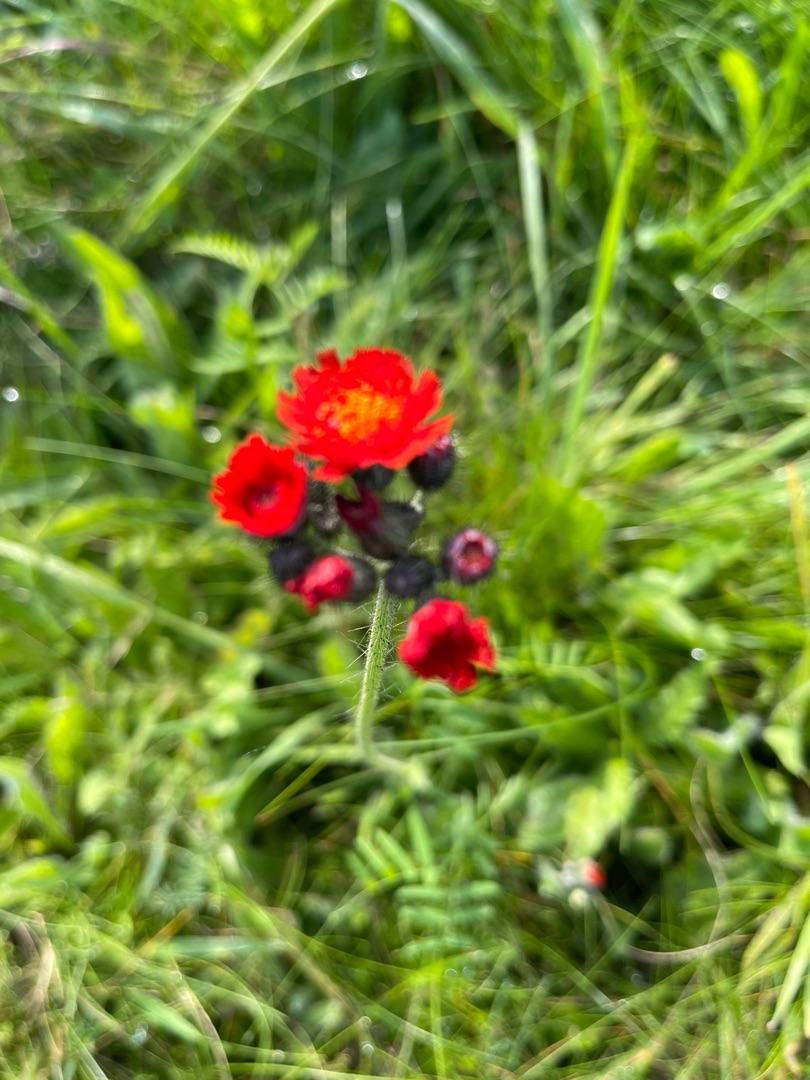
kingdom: Plantae
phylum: Tracheophyta
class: Magnoliopsida
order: Asterales
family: Asteraceae
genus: Pilosella
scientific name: Pilosella aurantiaca
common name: Pomerans-høgeurt
